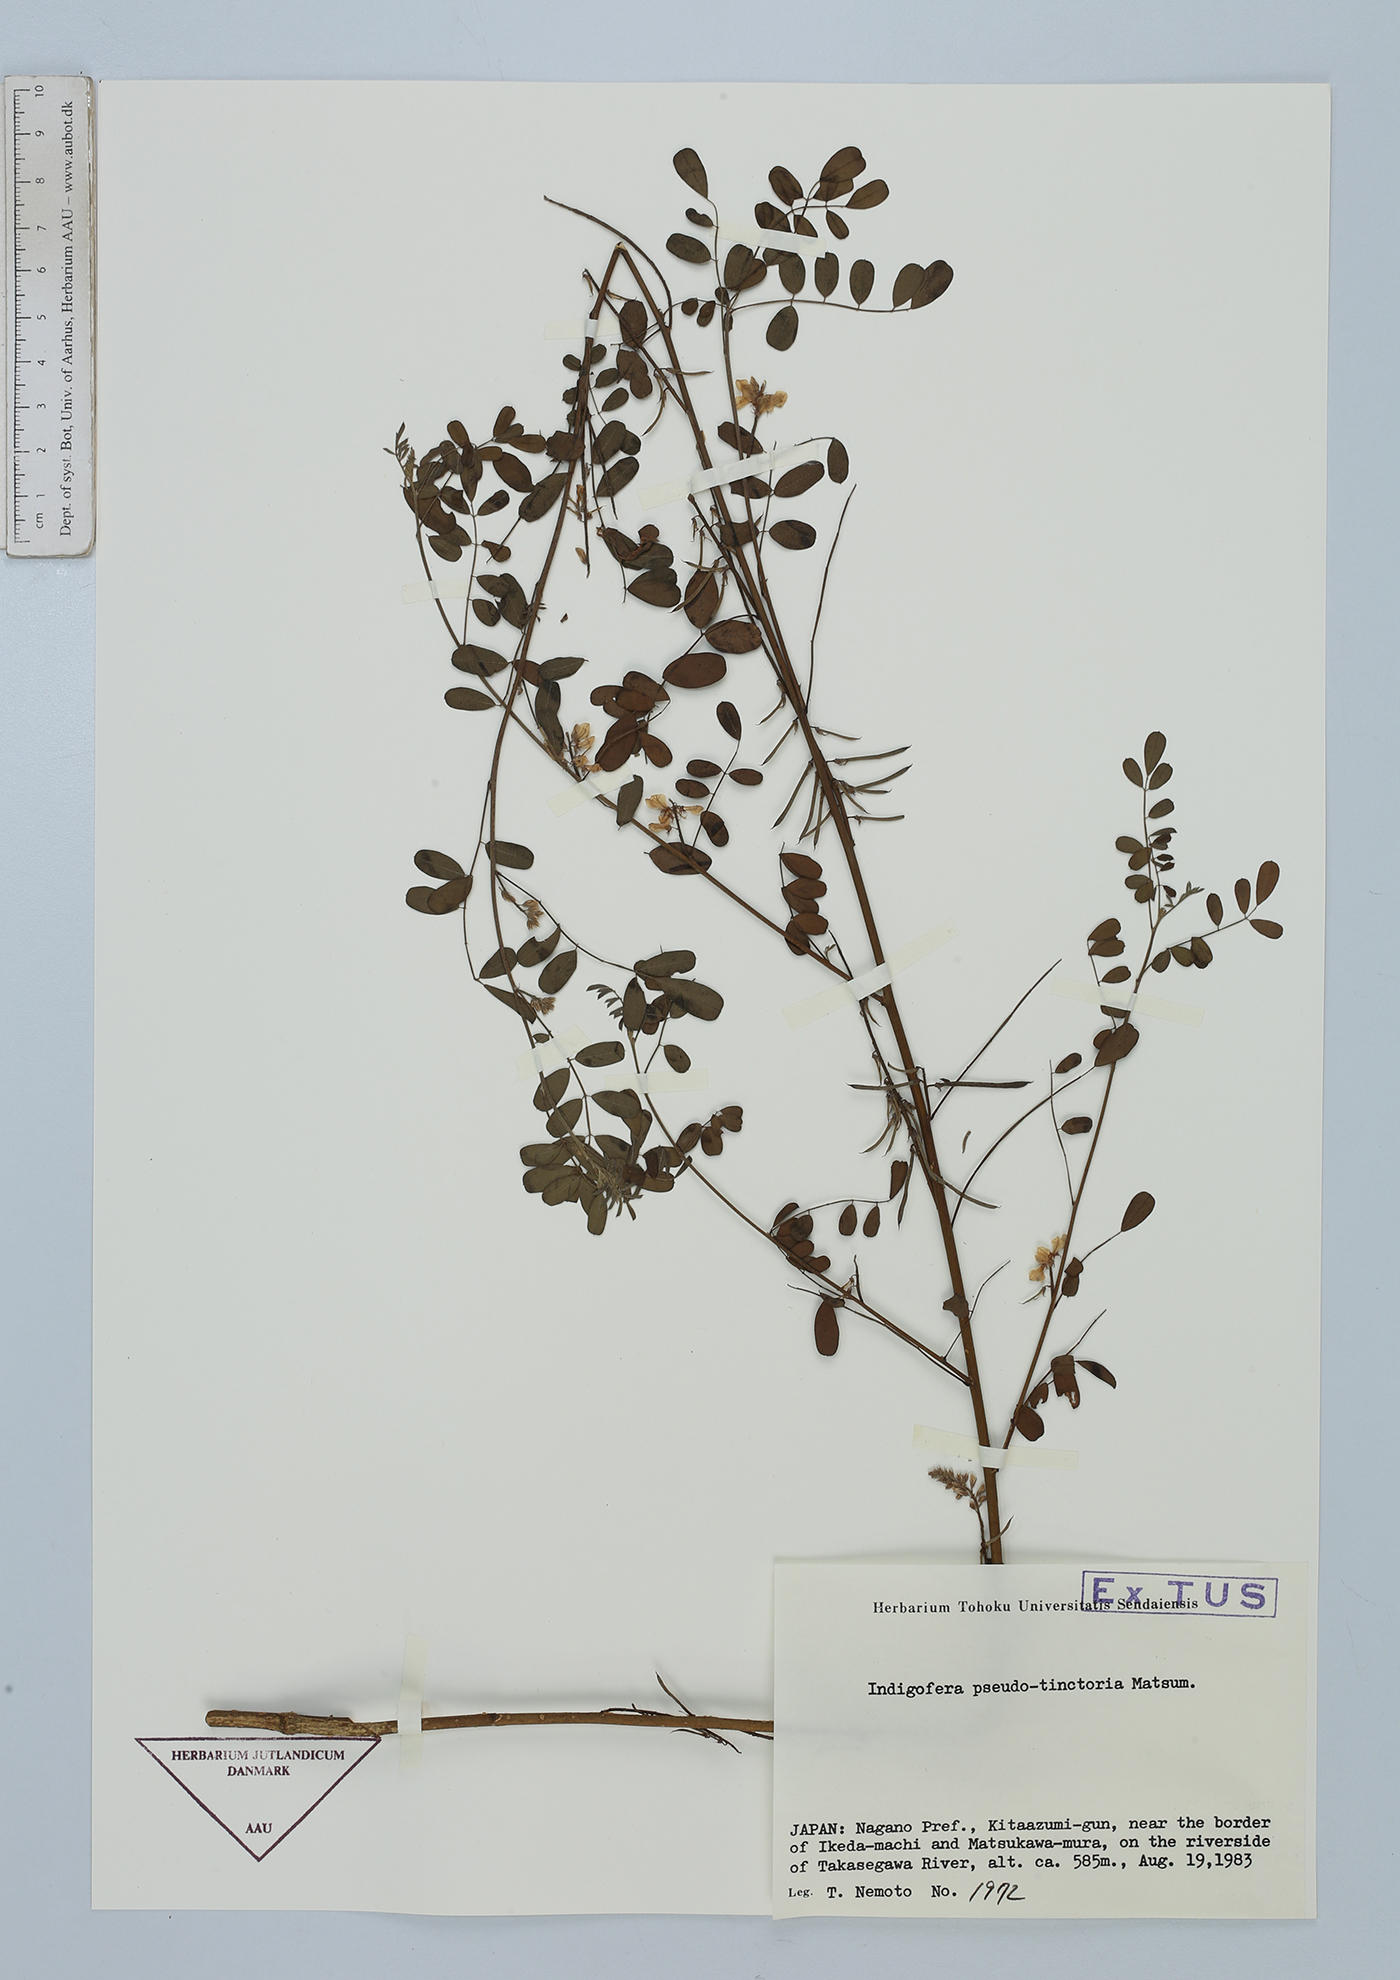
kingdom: Plantae
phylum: Tracheophyta
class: Magnoliopsida
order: Fabales
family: Fabaceae
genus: Indigofera
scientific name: Indigofera bungeana
